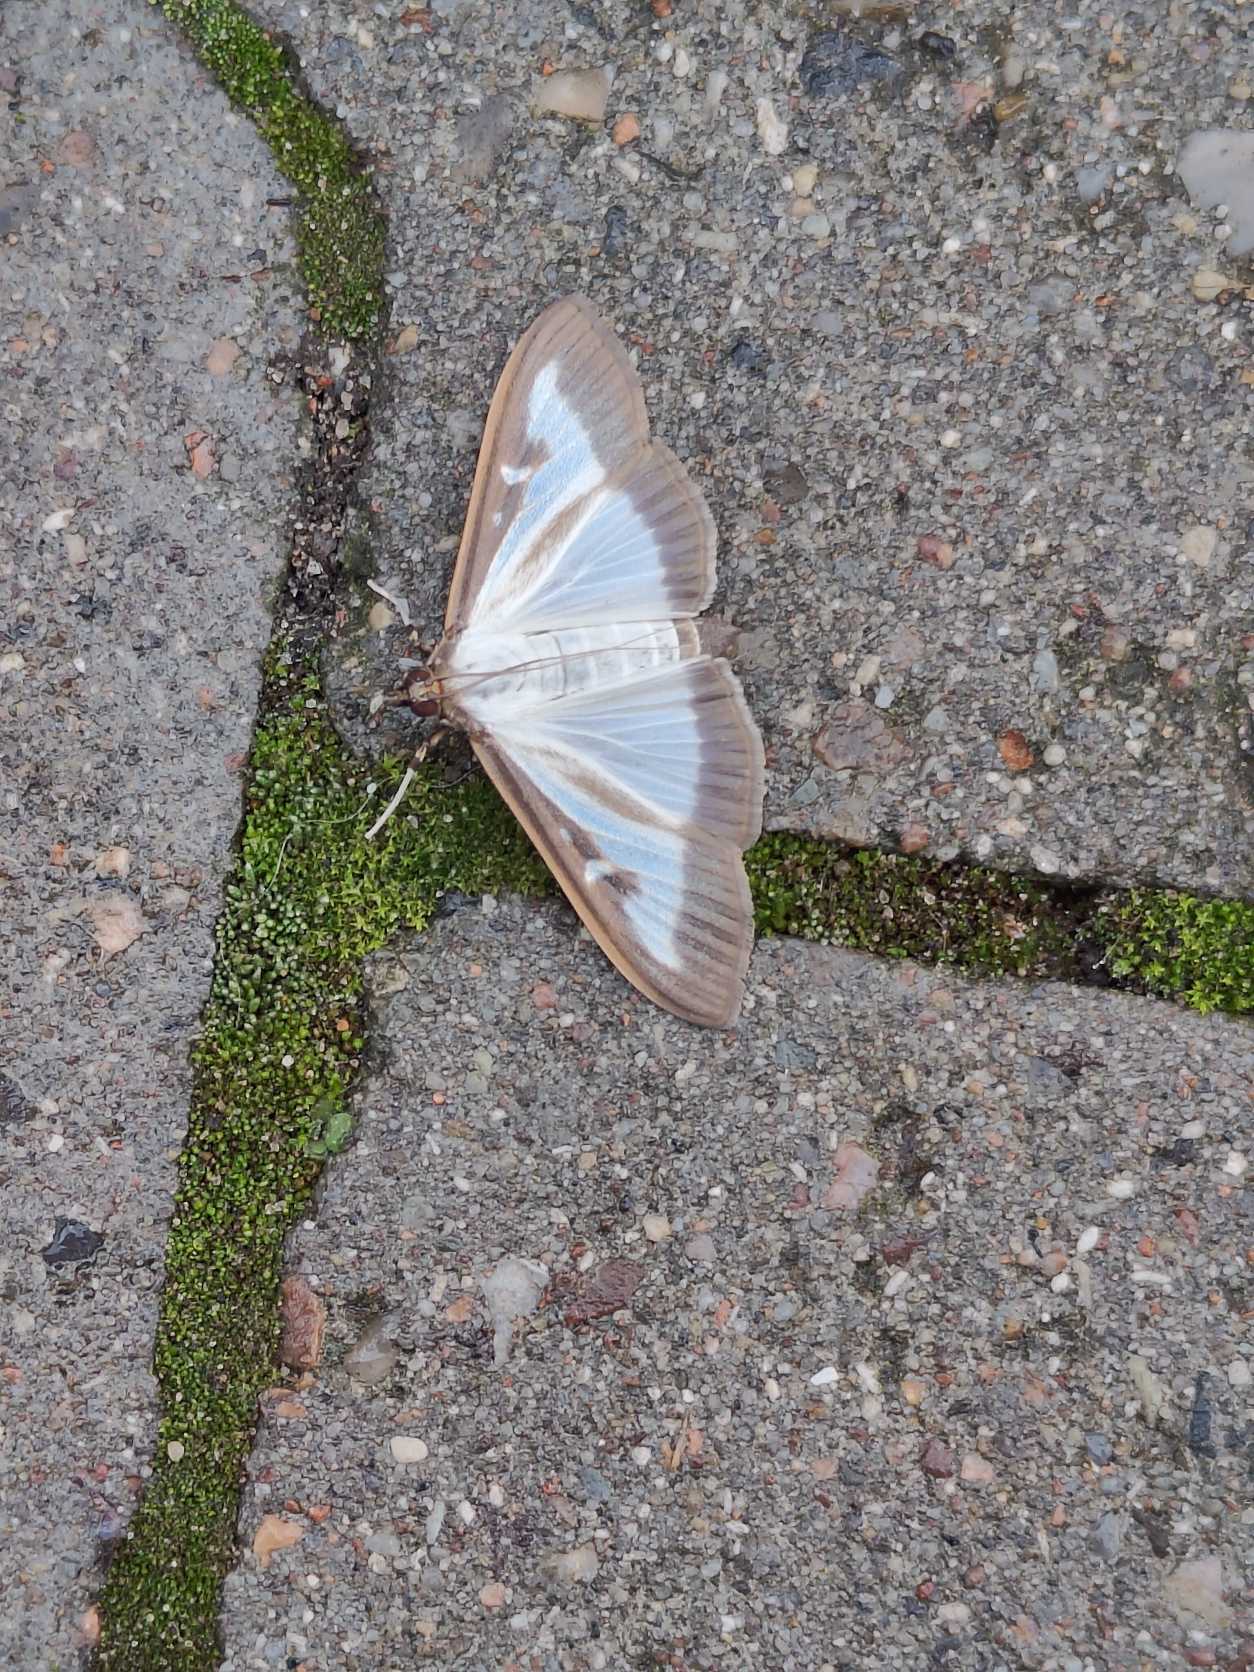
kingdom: Animalia
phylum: Arthropoda
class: Insecta
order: Lepidoptera
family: Crambidae
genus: Cydalima
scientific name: Cydalima perspectalis
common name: Buksbomhalvmøl
